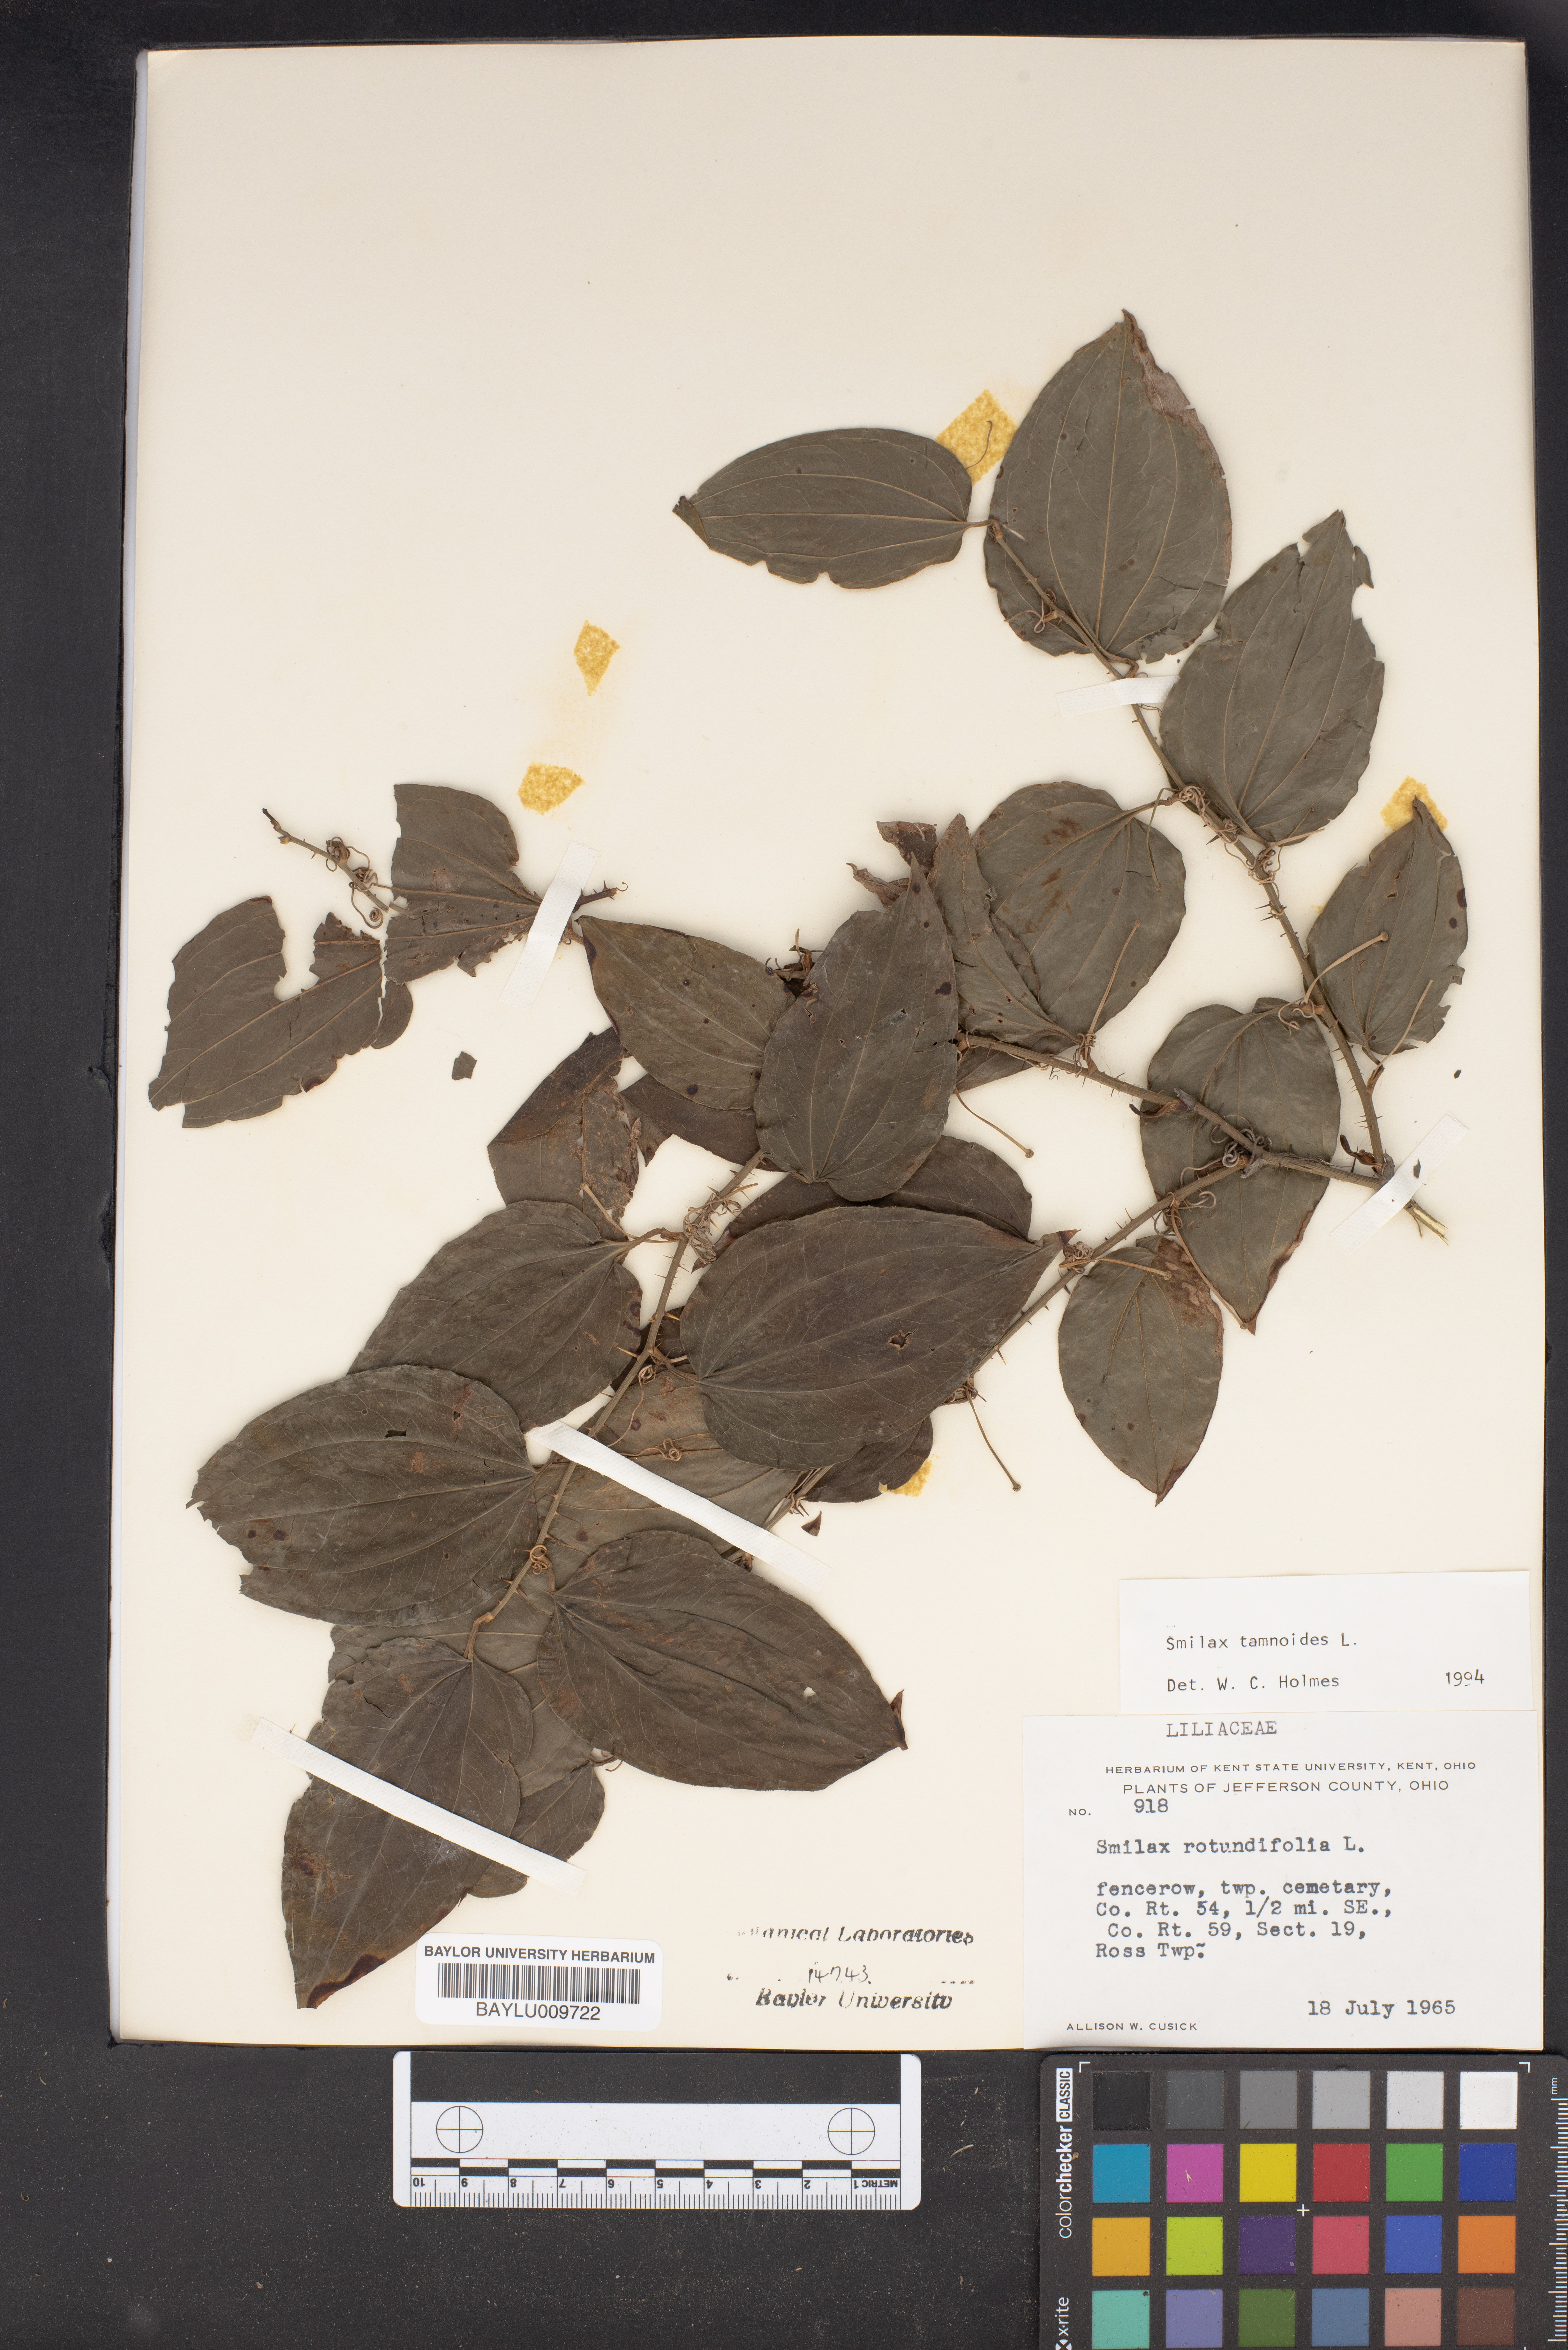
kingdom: Plantae
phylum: Tracheophyta
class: Liliopsida
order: Liliales
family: Smilacaceae
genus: Smilax
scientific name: Smilax tamnoides
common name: Hellfetter
